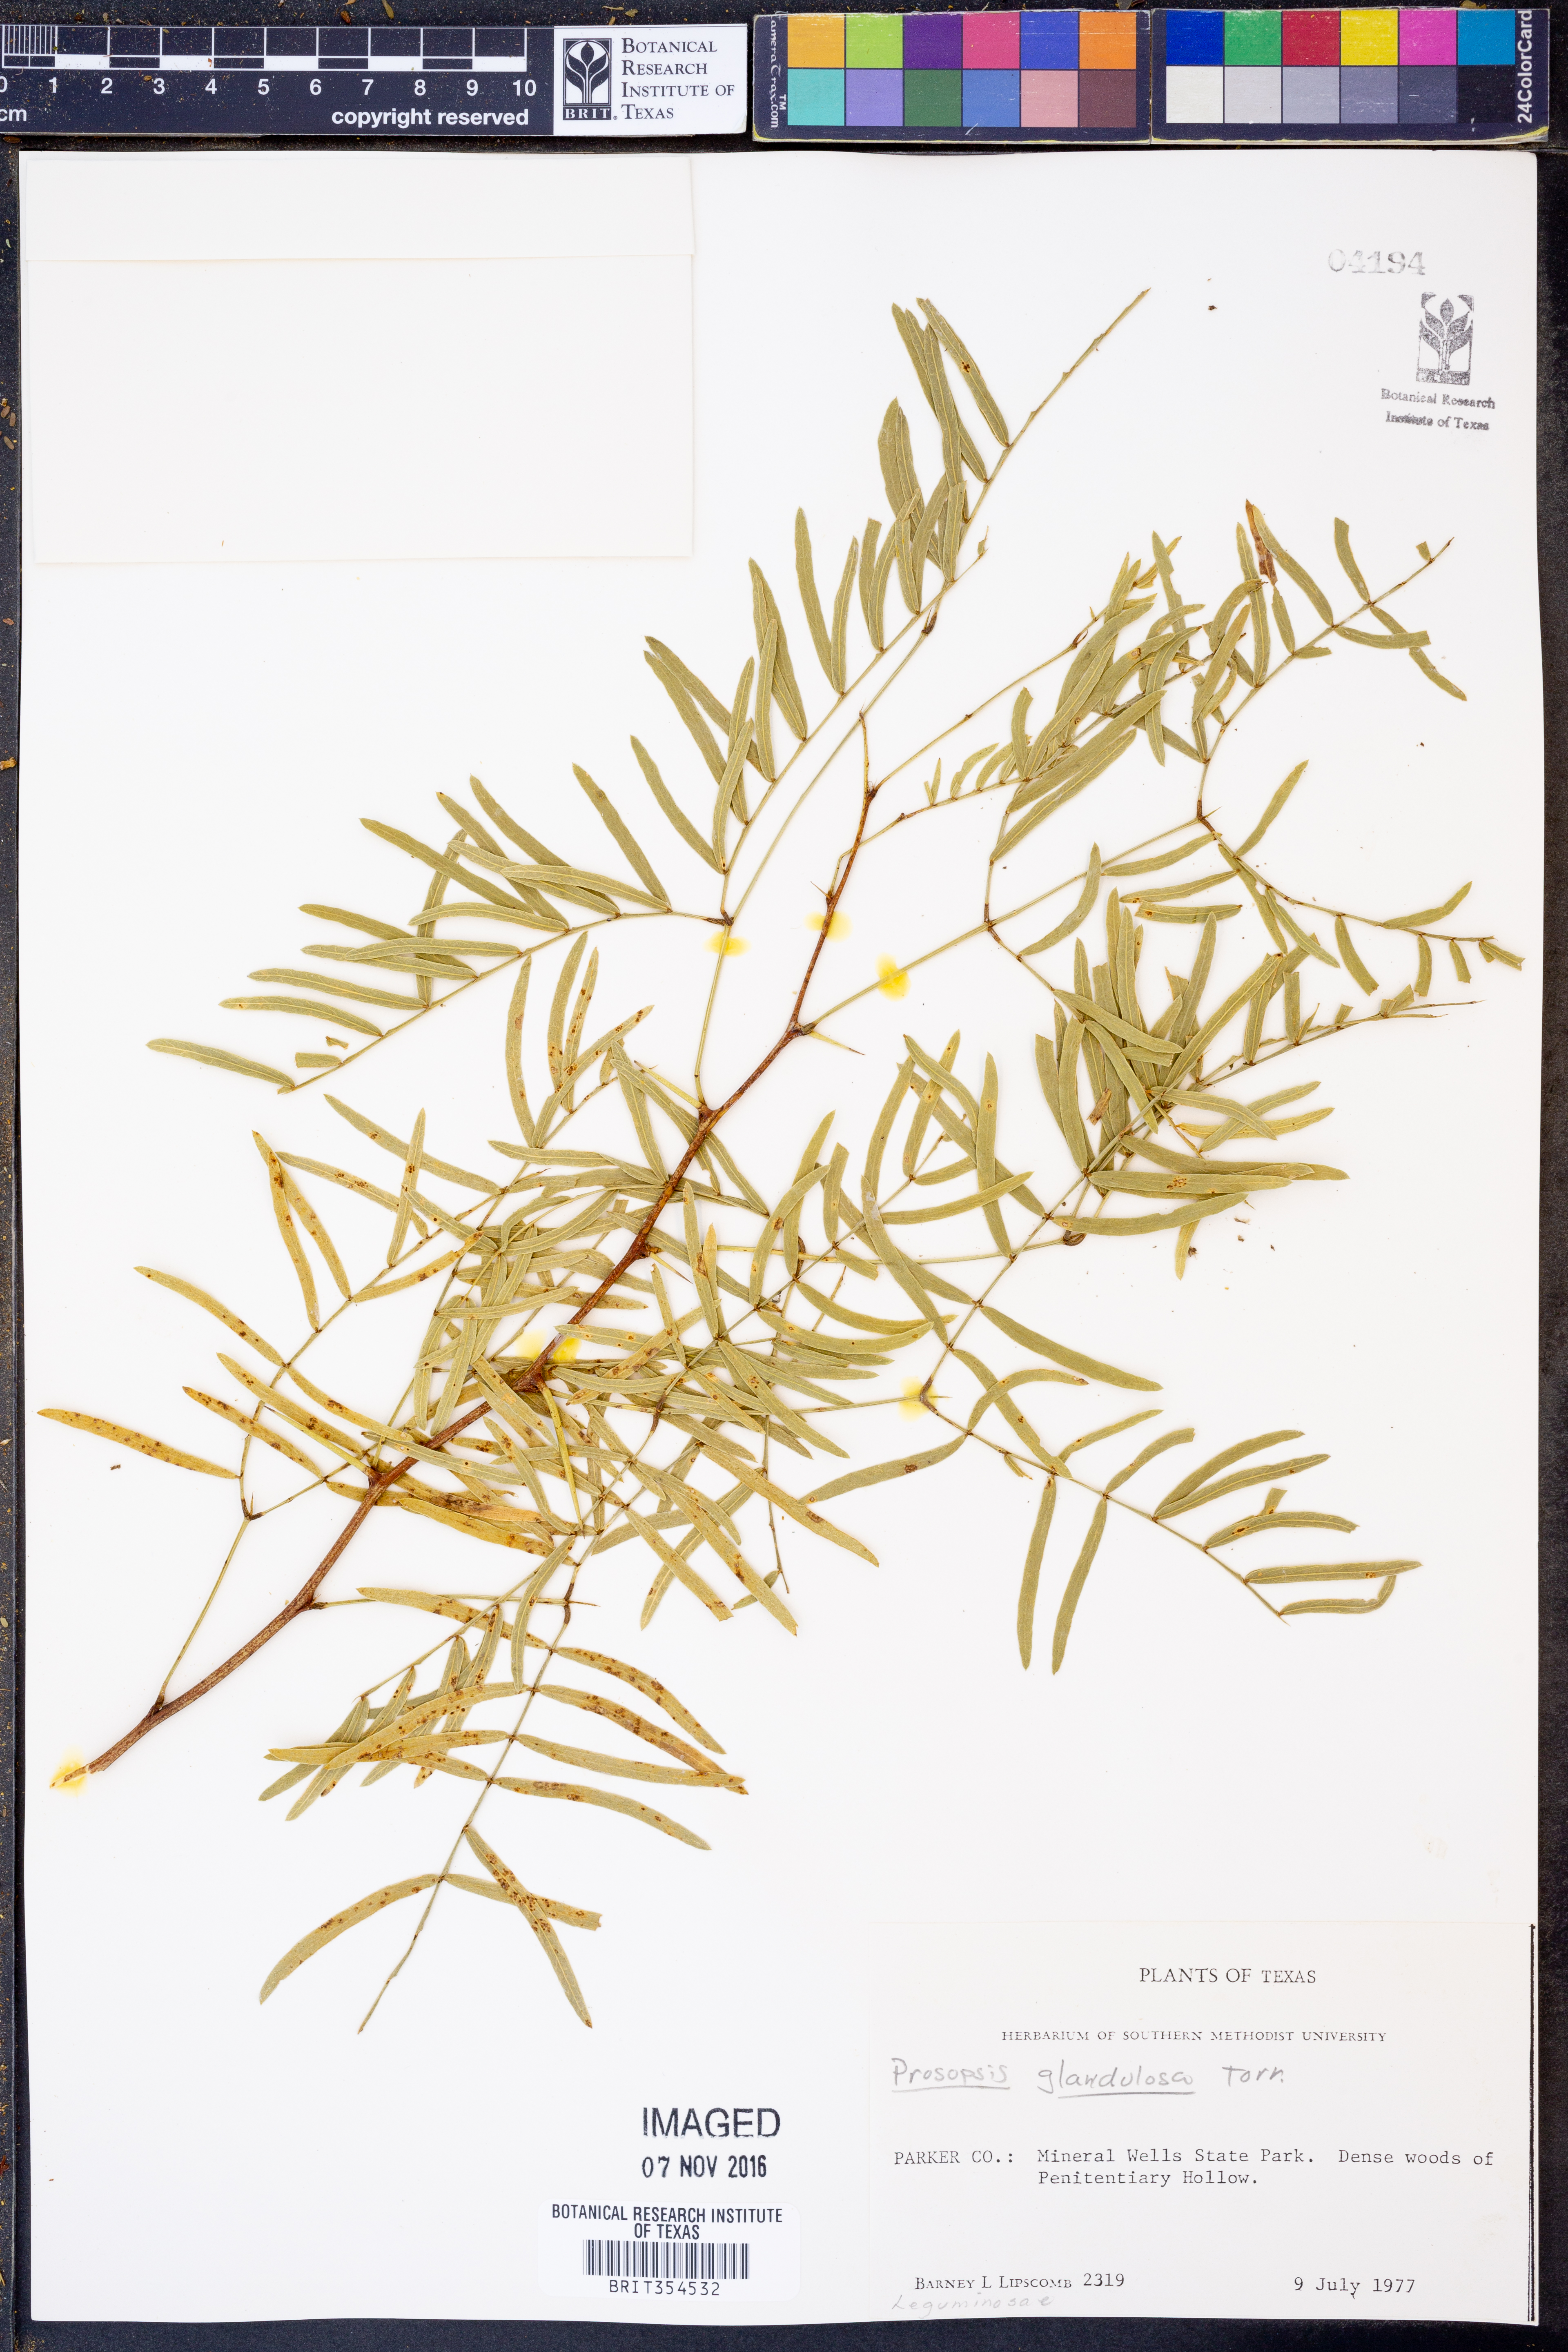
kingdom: Plantae
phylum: Tracheophyta
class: Magnoliopsida
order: Fabales
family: Fabaceae
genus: Prosopis
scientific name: Prosopis glandulosa
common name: Honey mesquite
